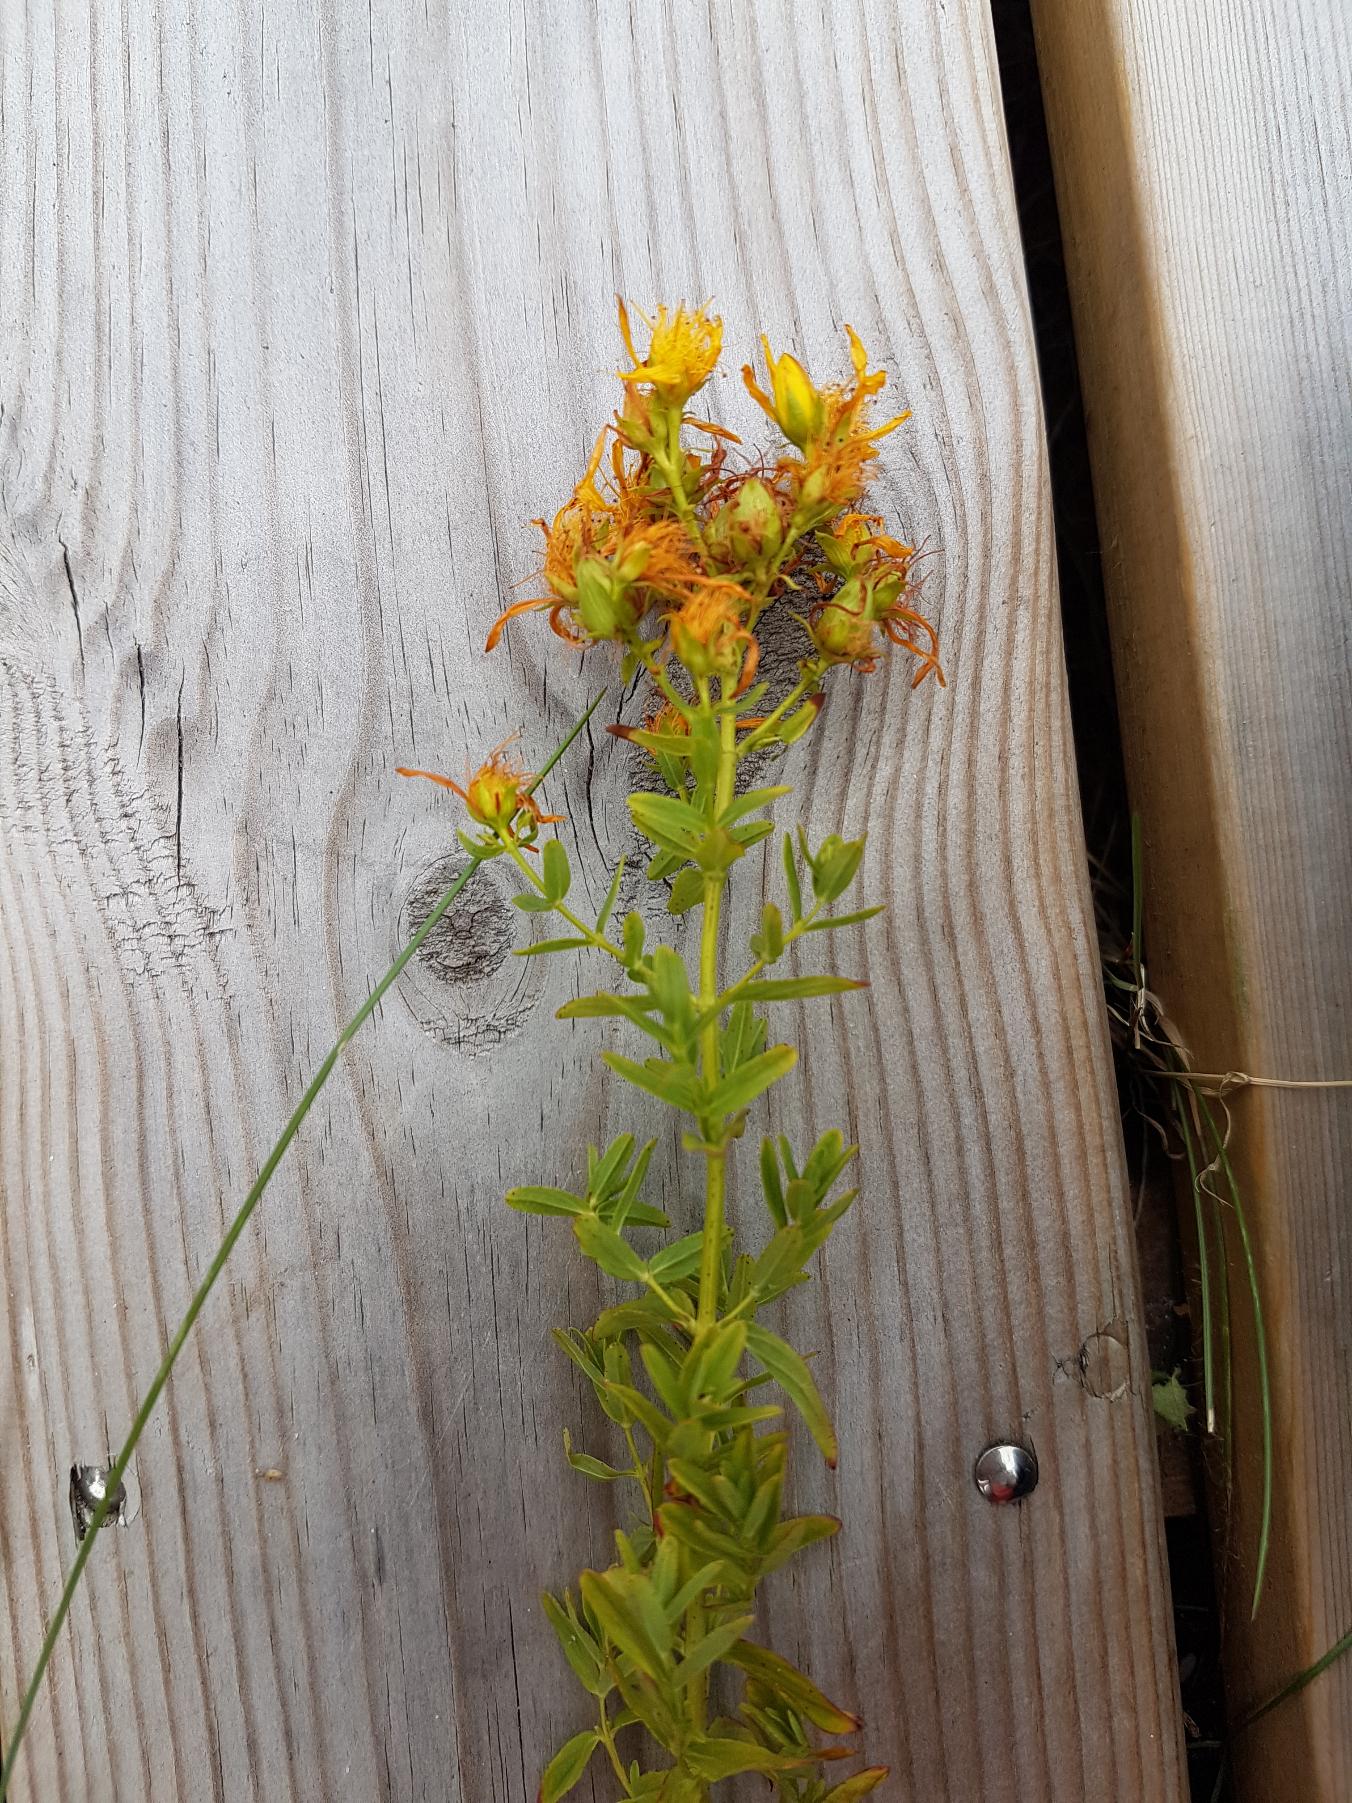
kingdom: Plantae
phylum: Tracheophyta
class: Magnoliopsida
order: Malpighiales
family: Hypericaceae
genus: Hypericum
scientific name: Hypericum perforatum
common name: Prikbladet perikon
